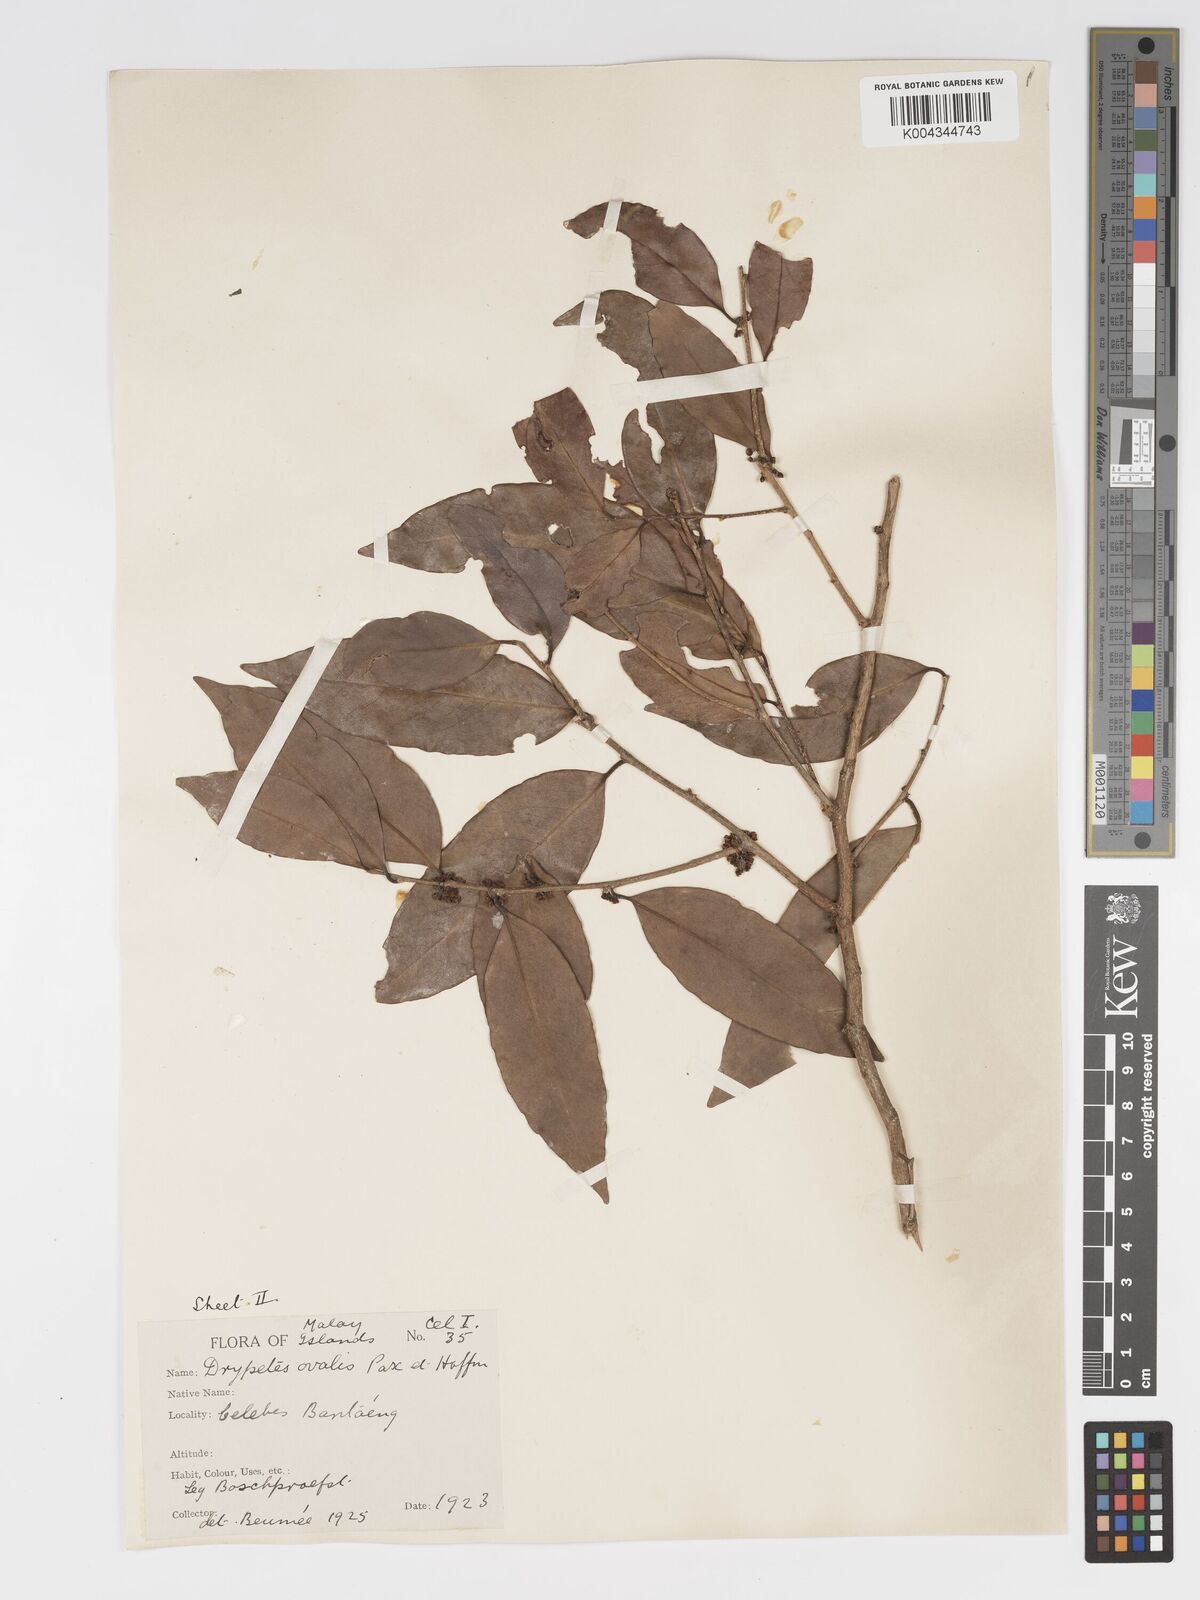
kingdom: Plantae
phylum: Tracheophyta
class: Magnoliopsida
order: Malpighiales
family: Putranjivaceae
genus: Drypetes
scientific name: Drypetes ovalis
